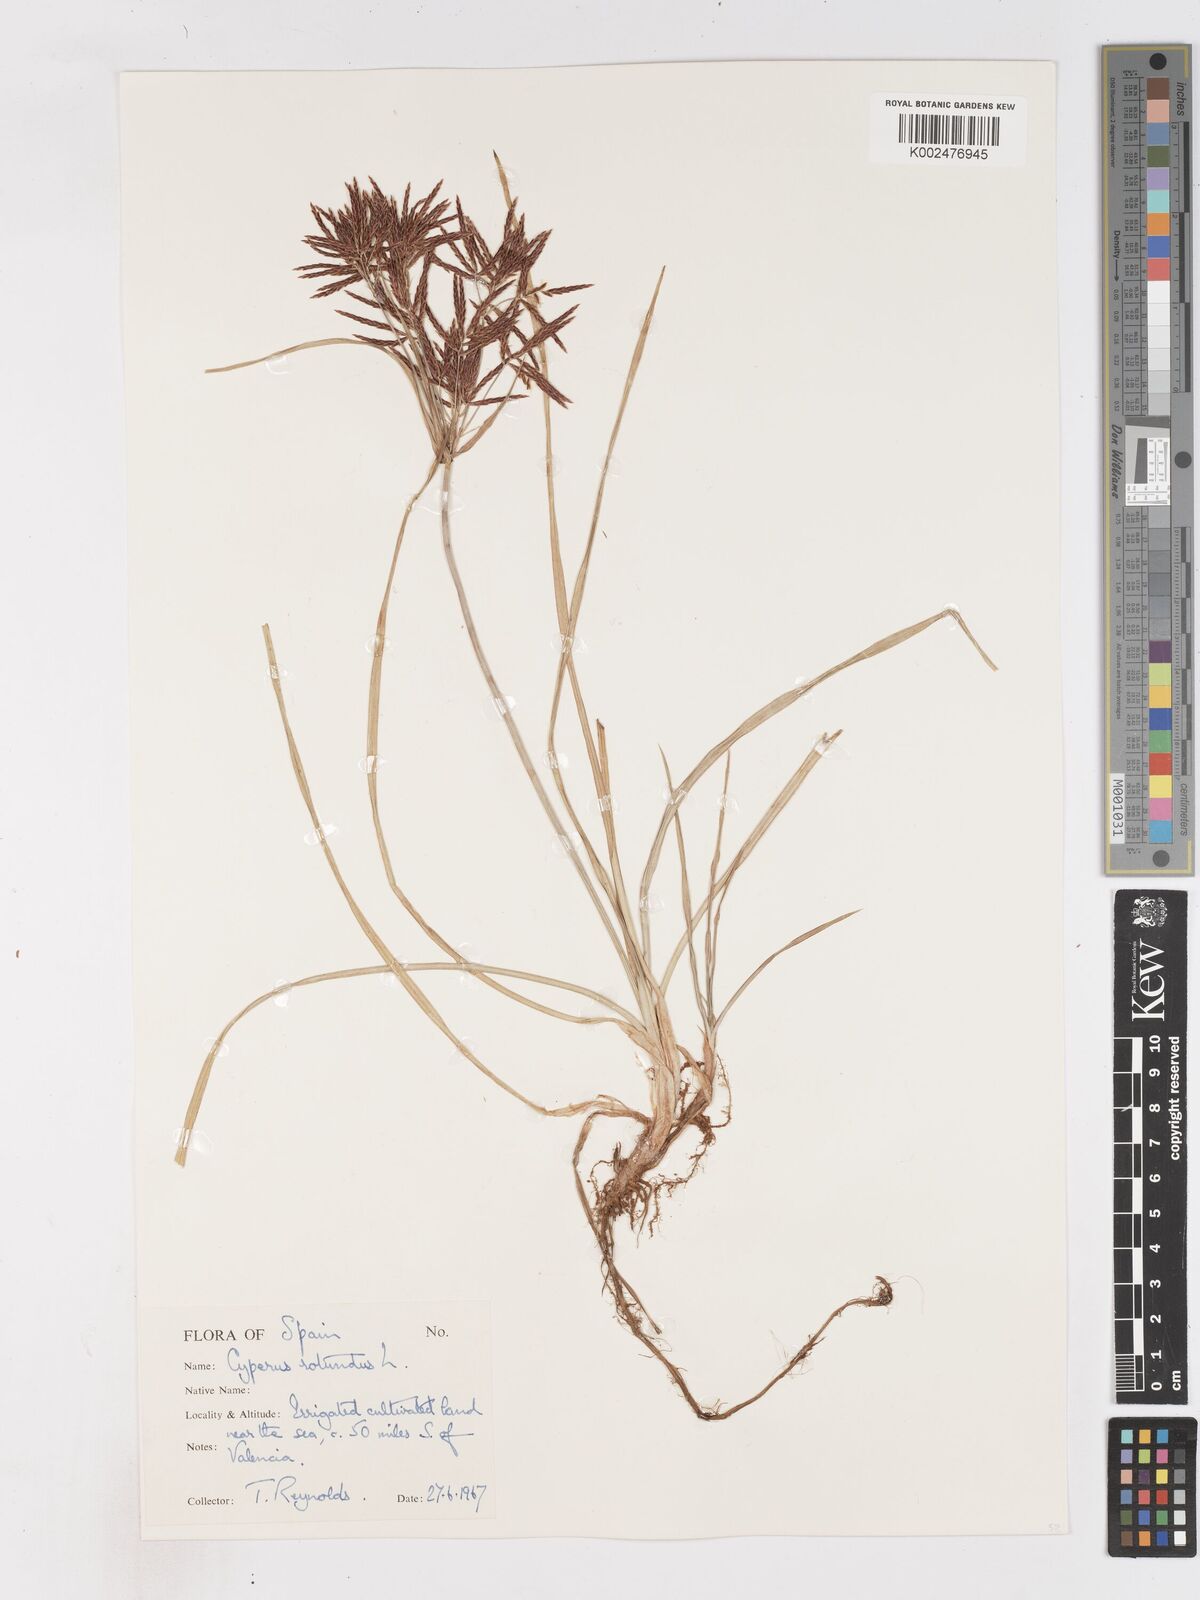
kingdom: Plantae
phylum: Tracheophyta
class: Liliopsida
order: Poales
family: Cyperaceae
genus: Cyperus
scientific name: Cyperus rotundus
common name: Nutgrass
